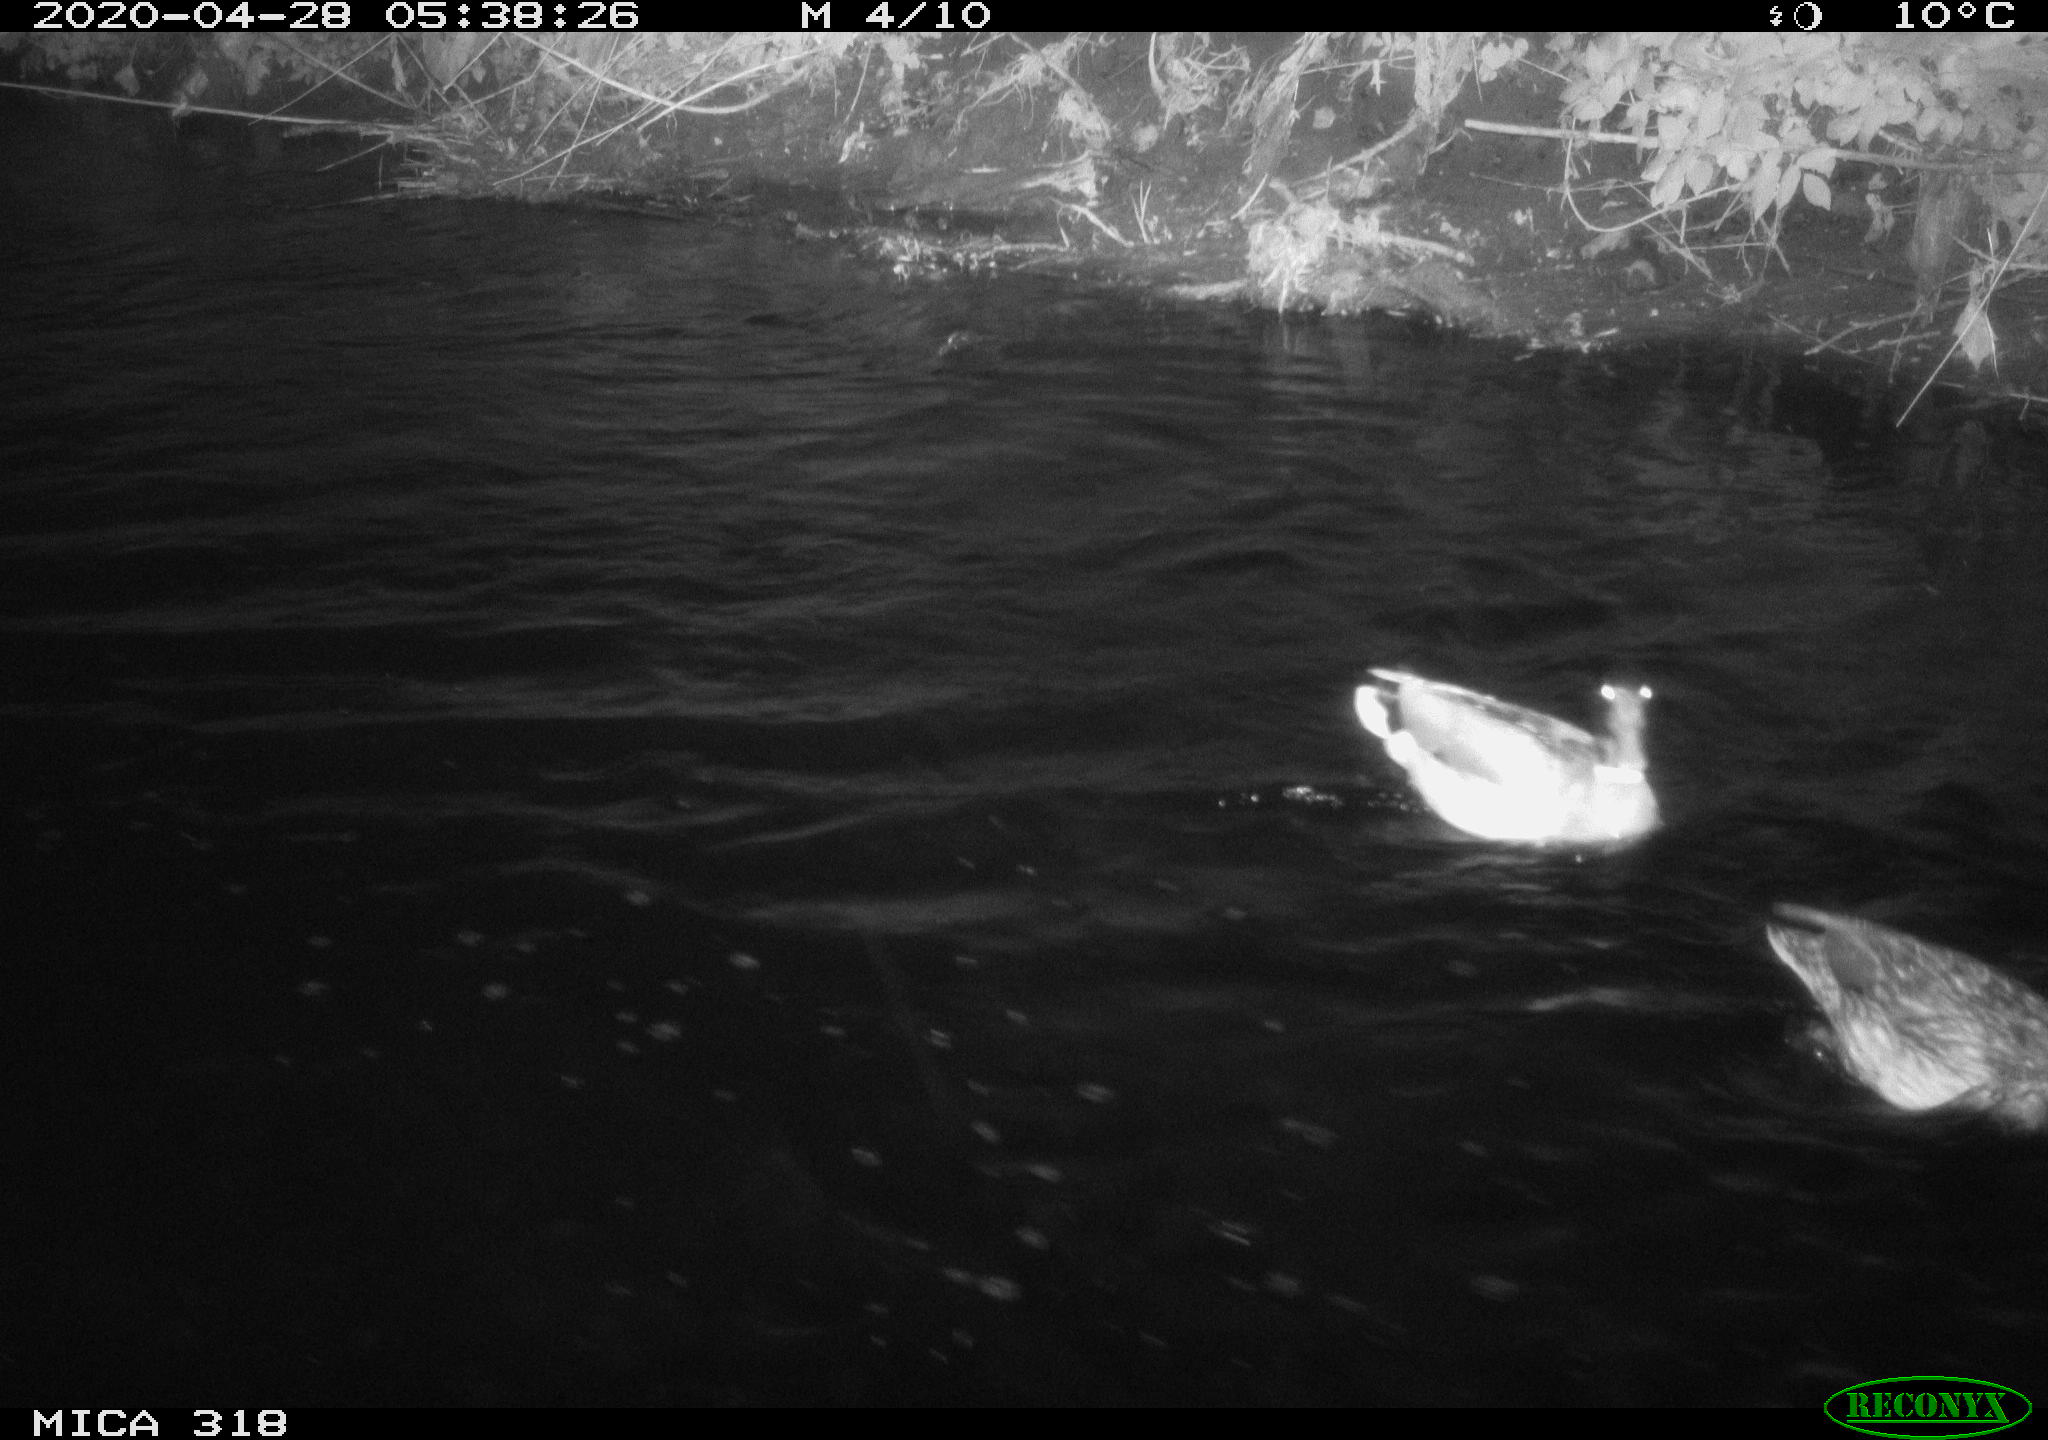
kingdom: Animalia
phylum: Chordata
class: Aves
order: Anseriformes
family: Anatidae
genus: Anas
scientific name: Anas platyrhynchos
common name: Mallard
